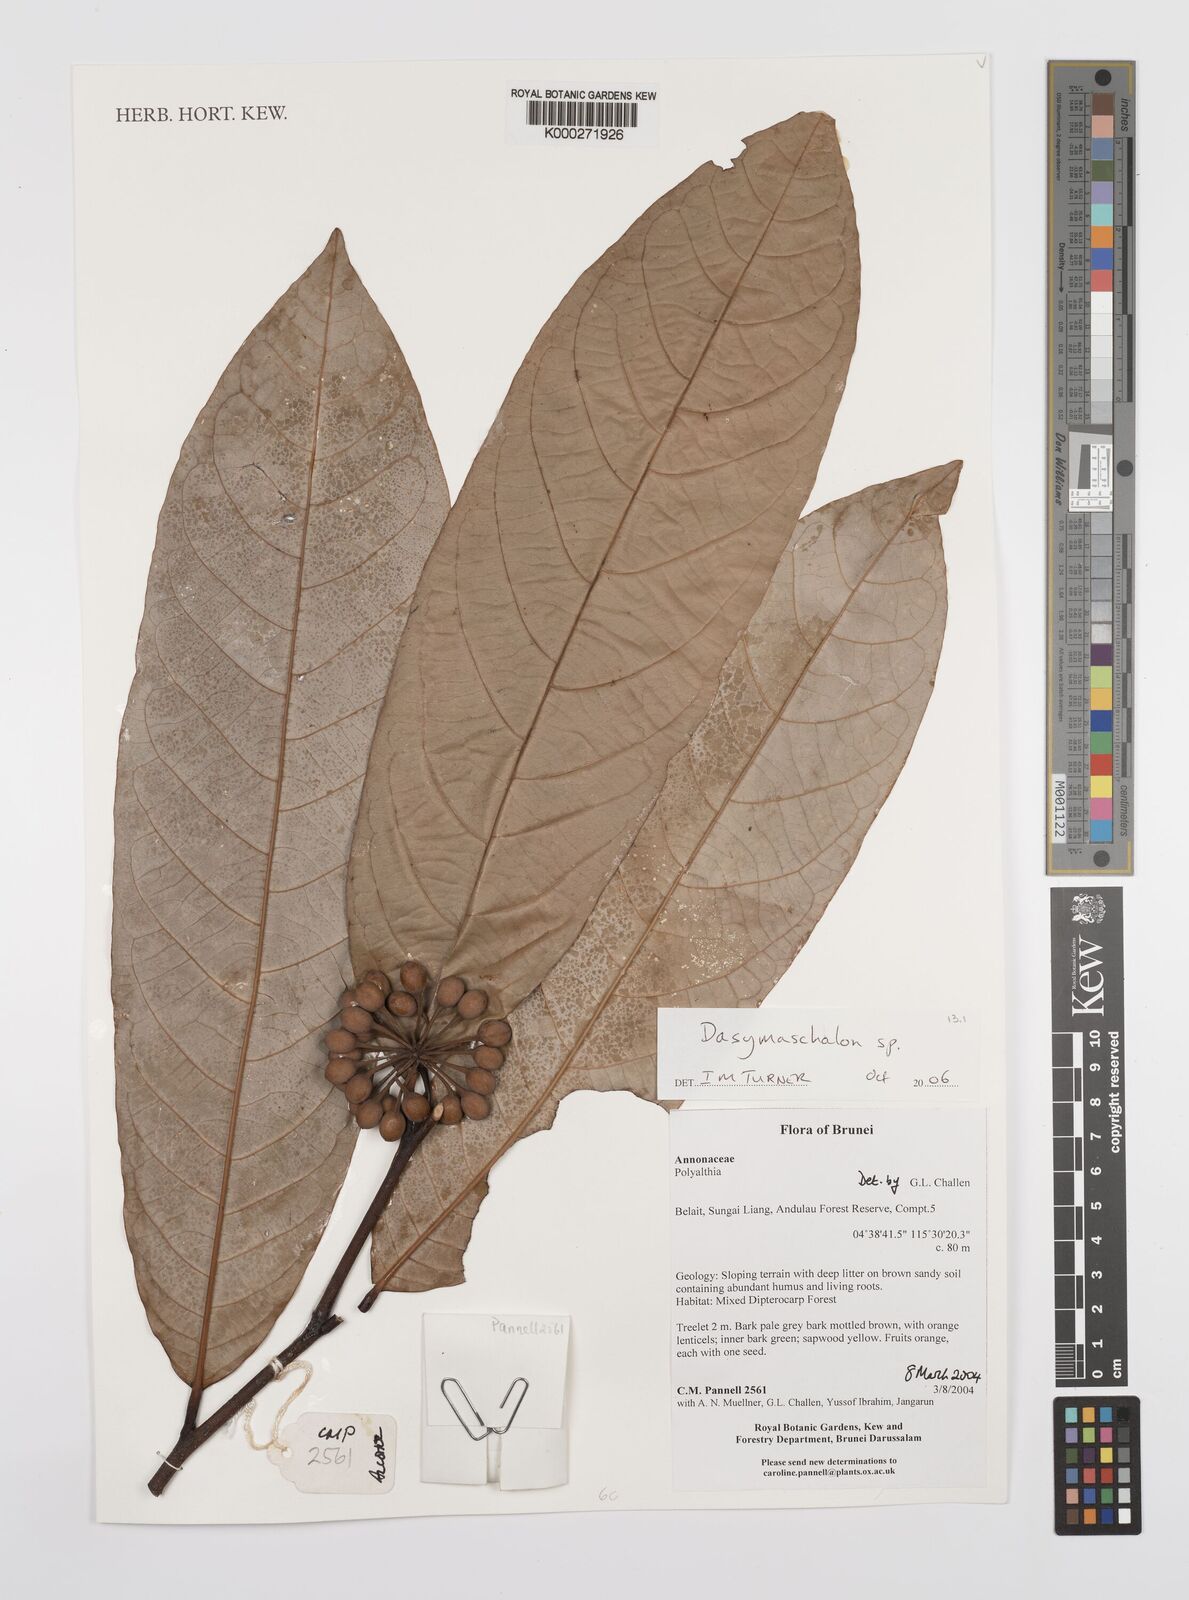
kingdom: Plantae
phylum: Tracheophyta
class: Magnoliopsida
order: Magnoliales
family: Annonaceae
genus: Dasymaschalon
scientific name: Dasymaschalon
